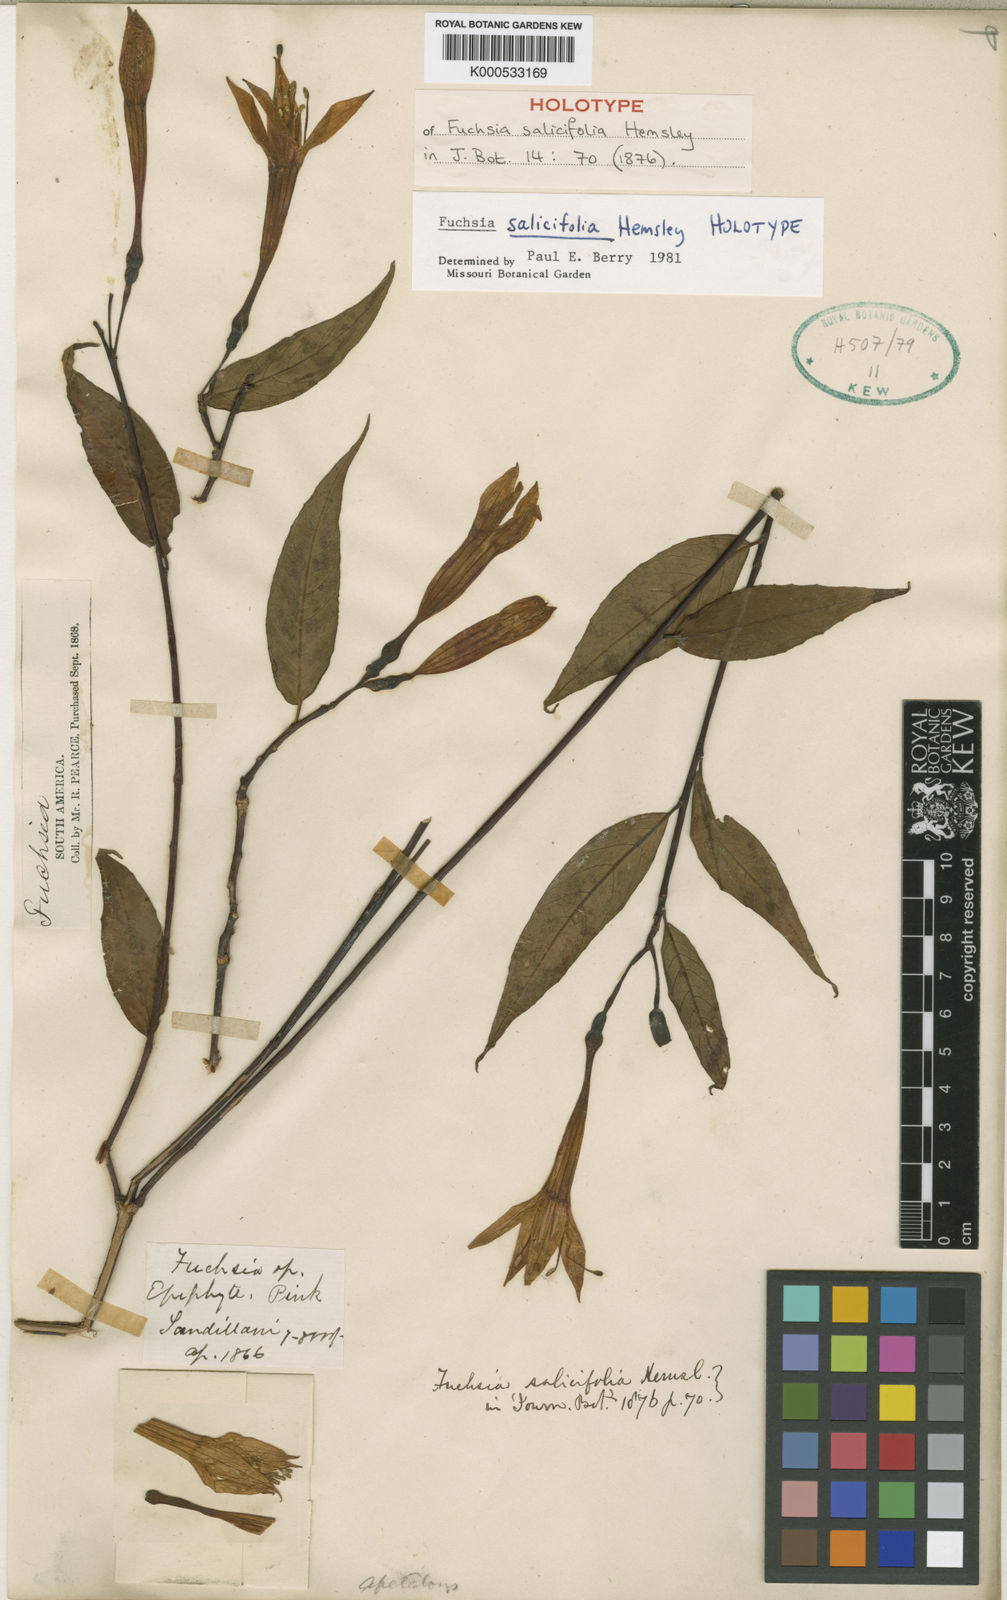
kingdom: Plantae
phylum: Tracheophyta
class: Magnoliopsida
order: Myrtales
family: Onagraceae
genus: Fuchsia
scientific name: Fuchsia salicifolia
